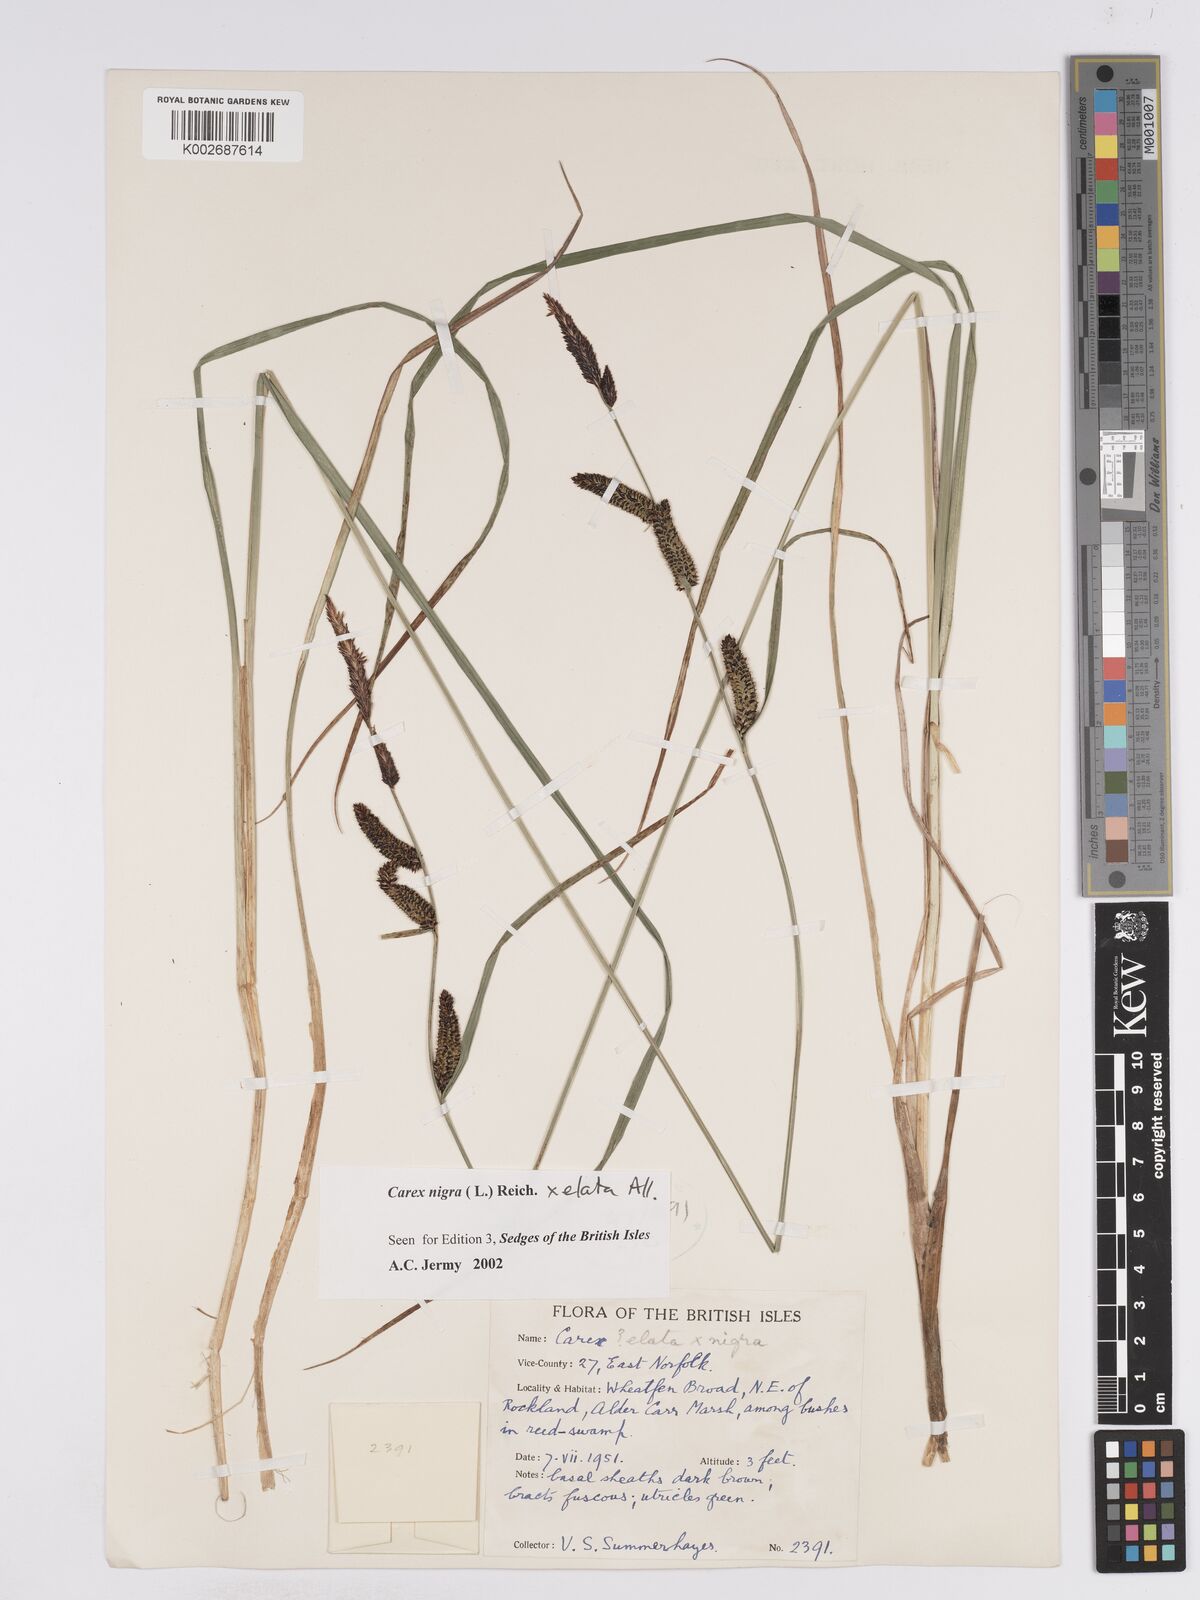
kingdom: Plantae
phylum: Tracheophyta
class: Liliopsida
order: Poales
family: Cyperaceae
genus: Carex
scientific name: Carex nigra
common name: Common sedge
